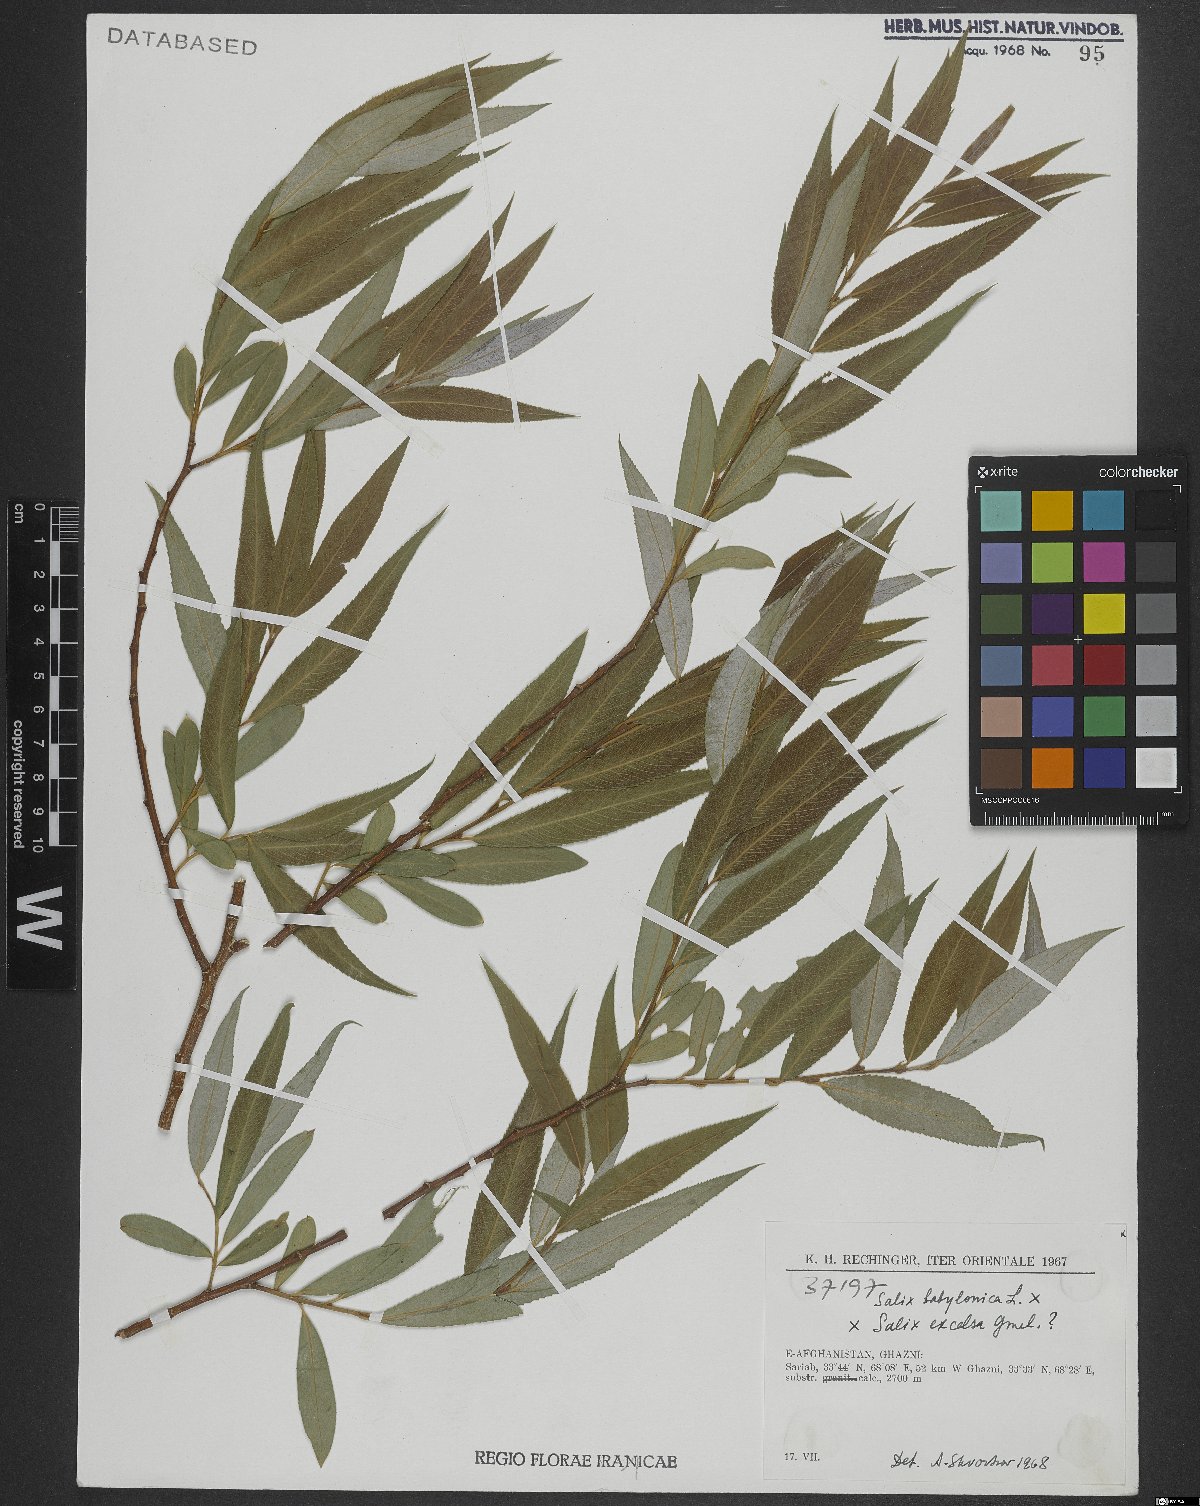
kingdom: Plantae
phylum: Tracheophyta
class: Magnoliopsida
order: Malpighiales
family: Salicaceae
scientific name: Salicaceae
